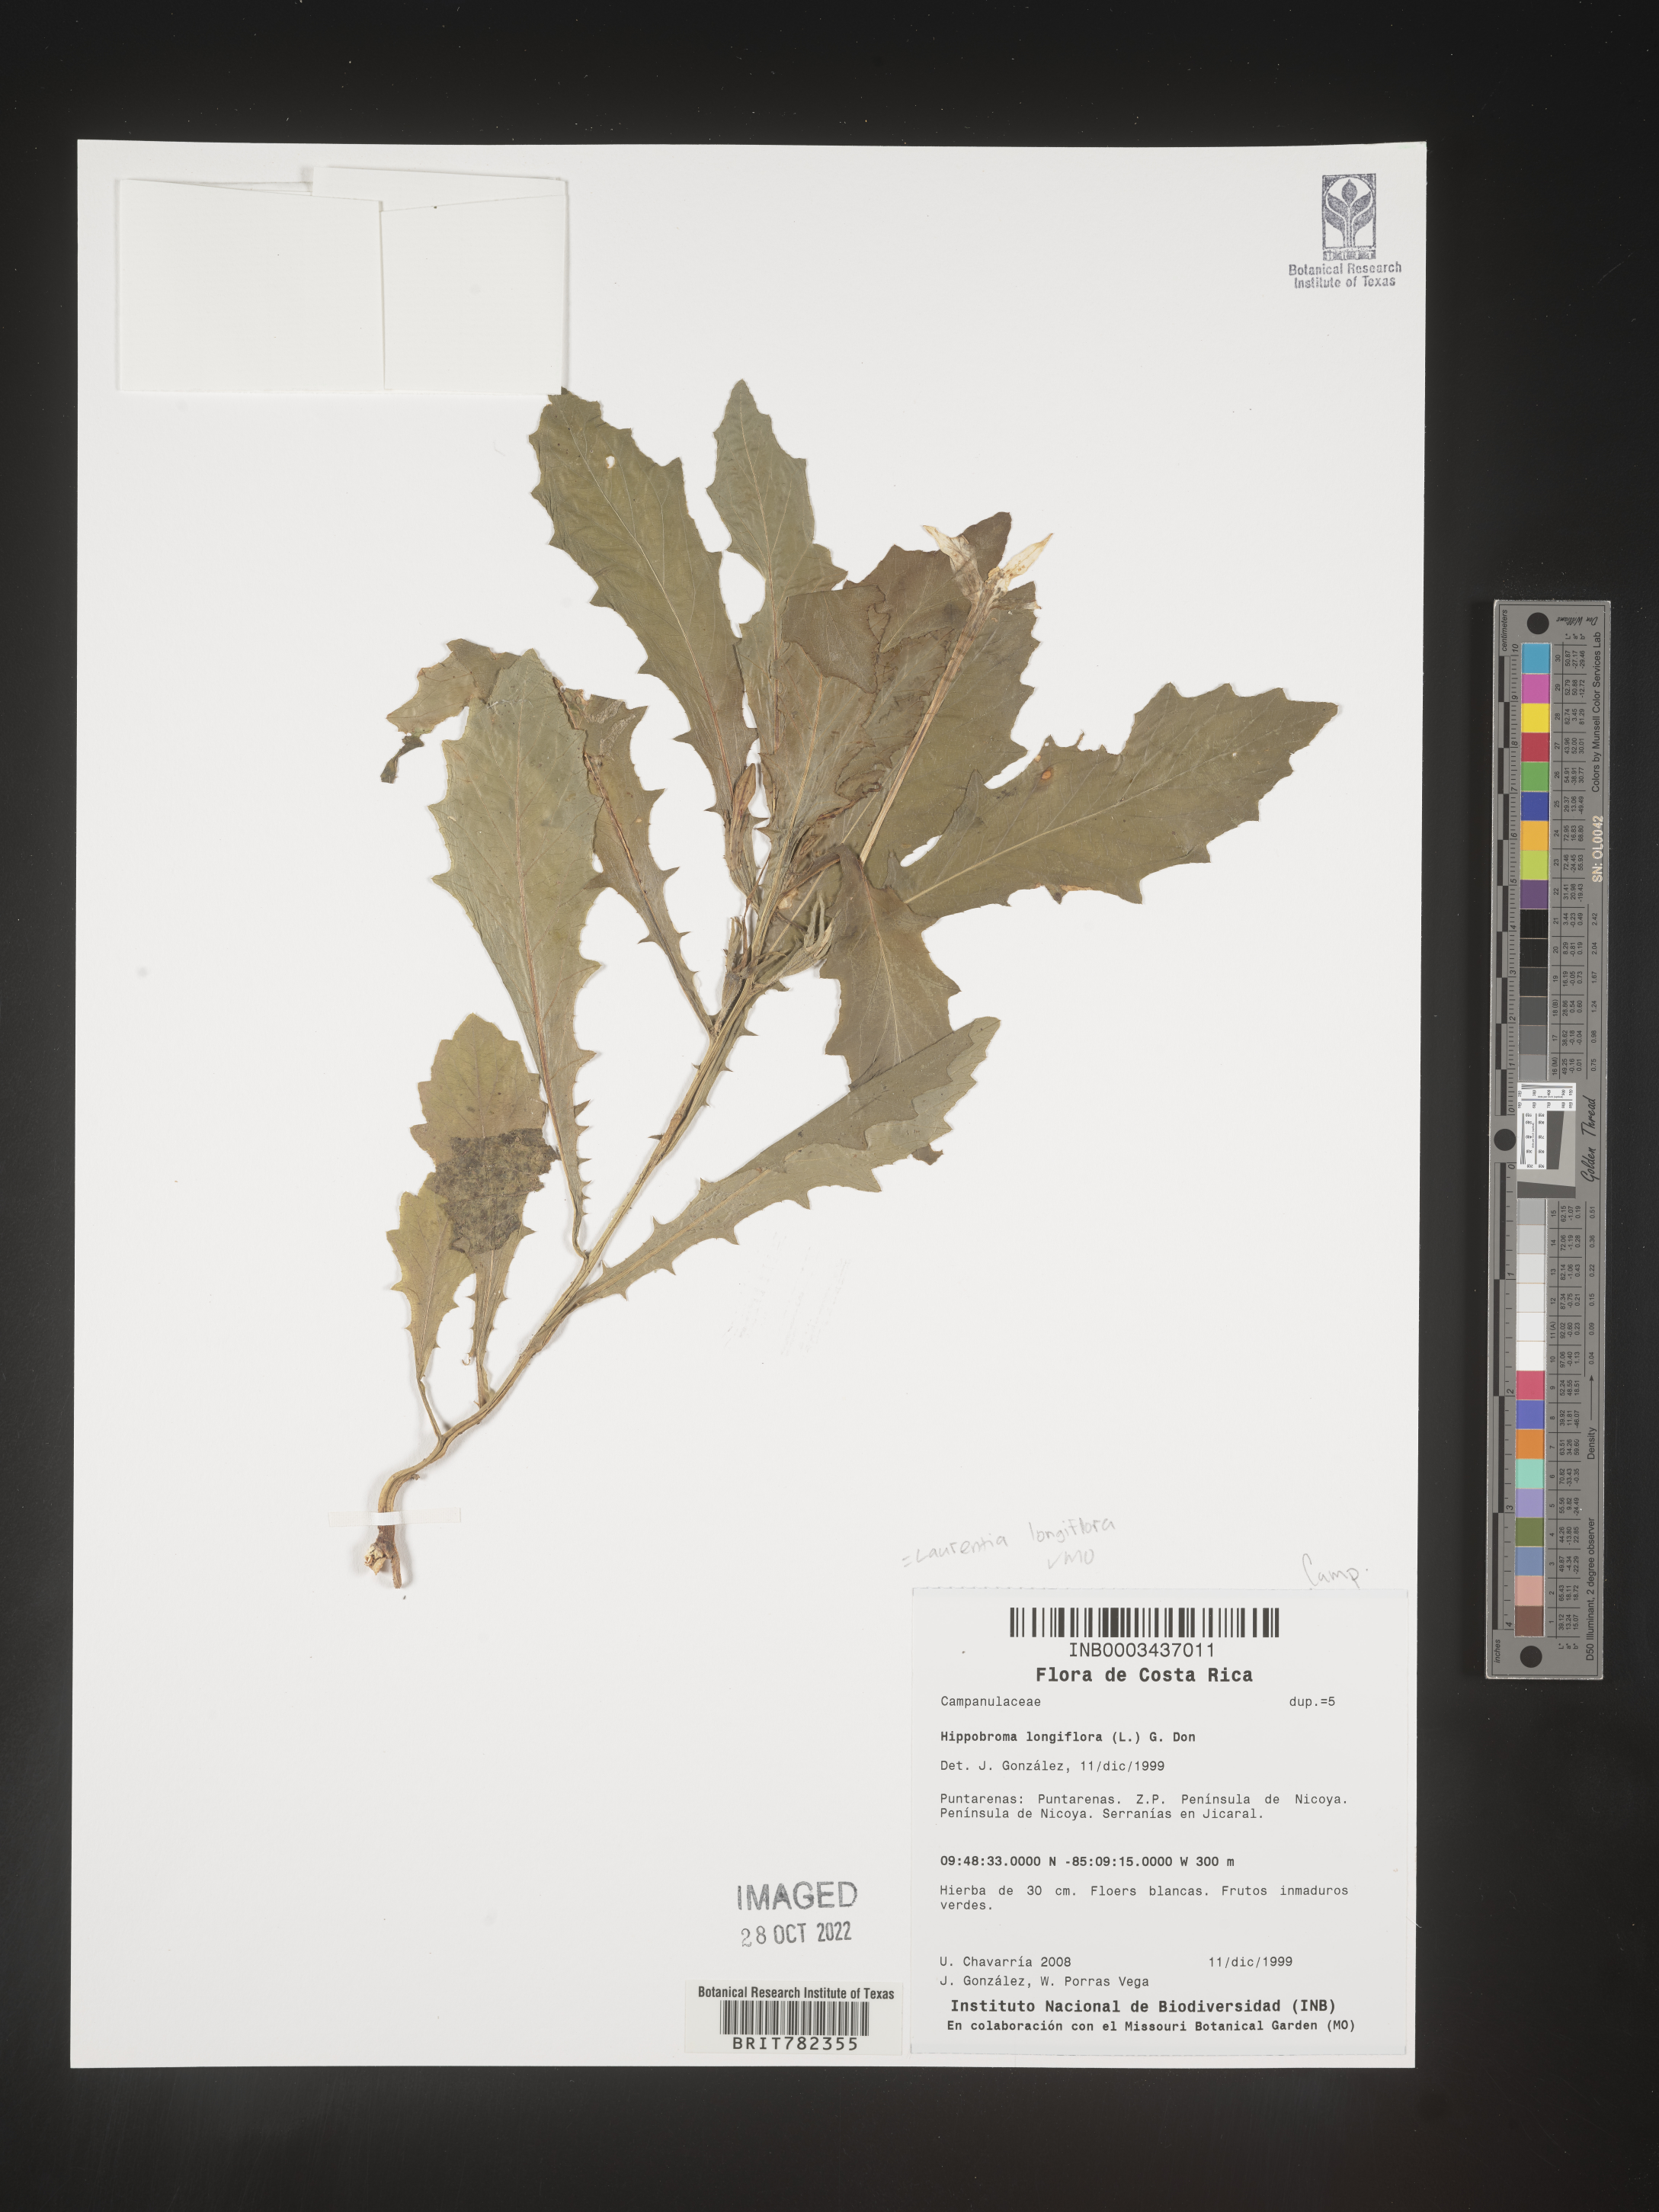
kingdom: Plantae
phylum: Tracheophyta
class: Magnoliopsida
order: Asterales
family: Campanulaceae
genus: Hippobroma
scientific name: Hippobroma
